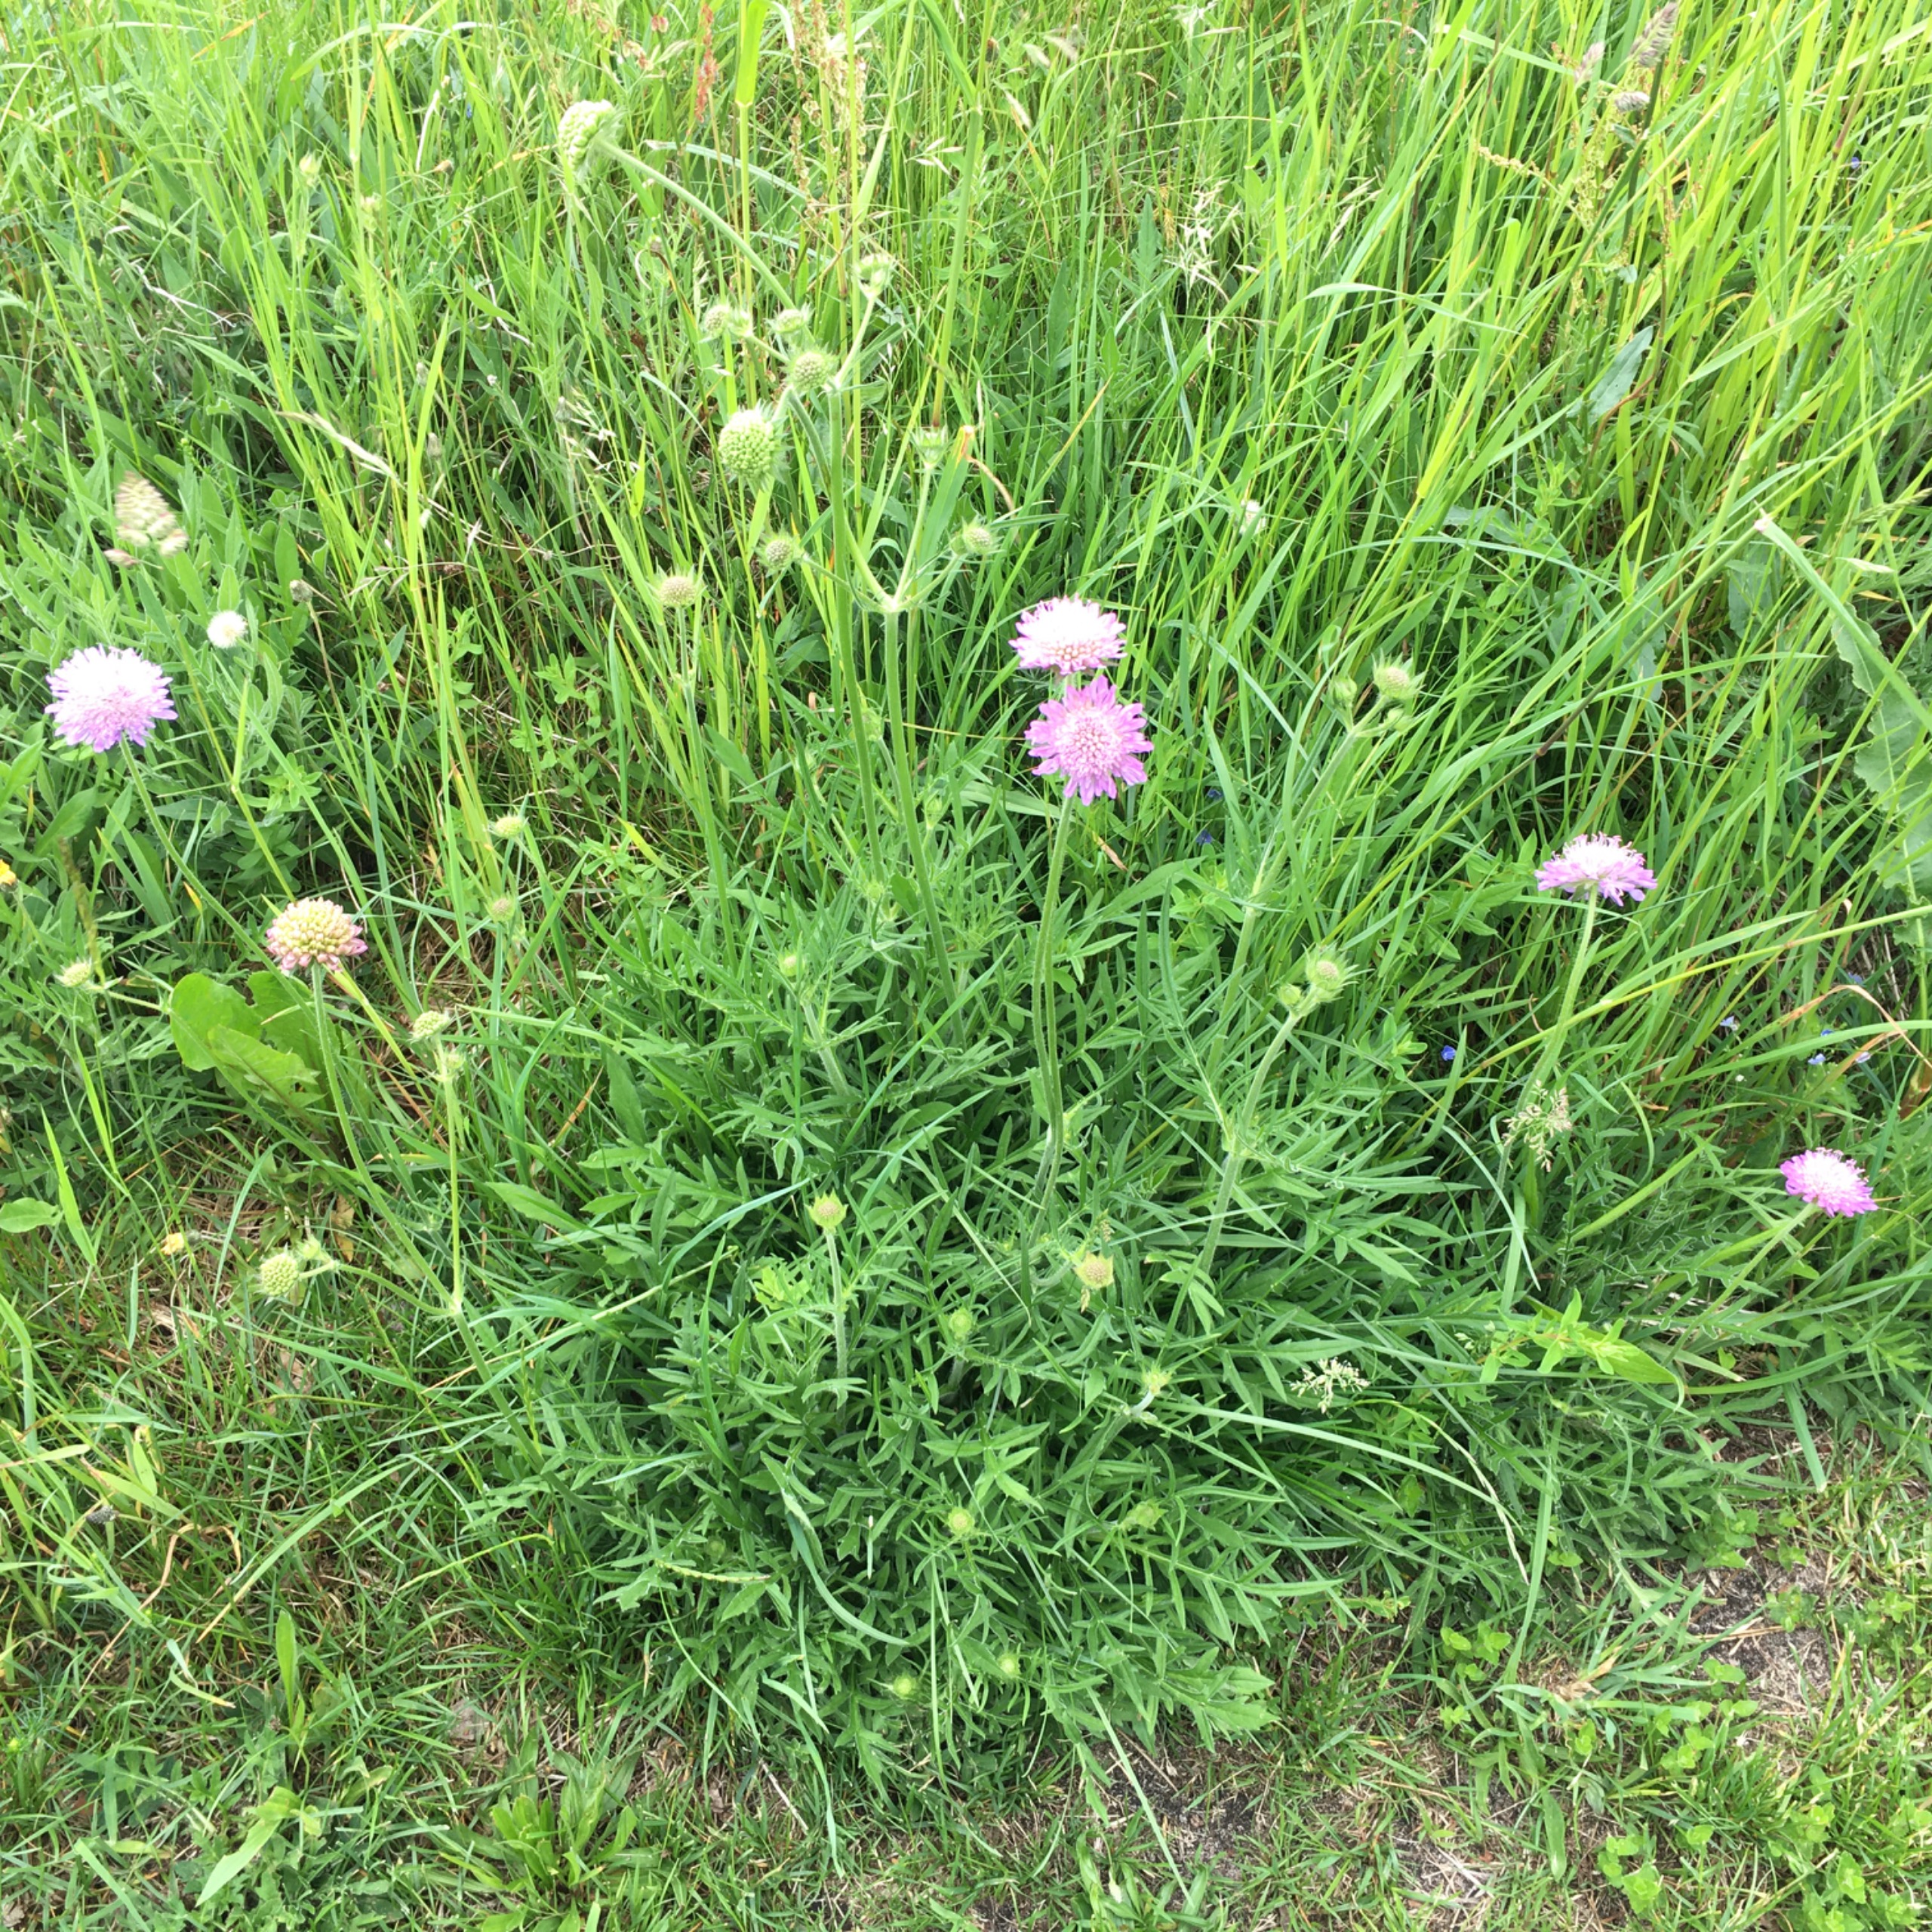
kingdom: Plantae
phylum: Tracheophyta
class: Magnoliopsida
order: Dipsacales
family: Caprifoliaceae
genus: Knautia
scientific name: Knautia arvensis
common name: Blåhat
